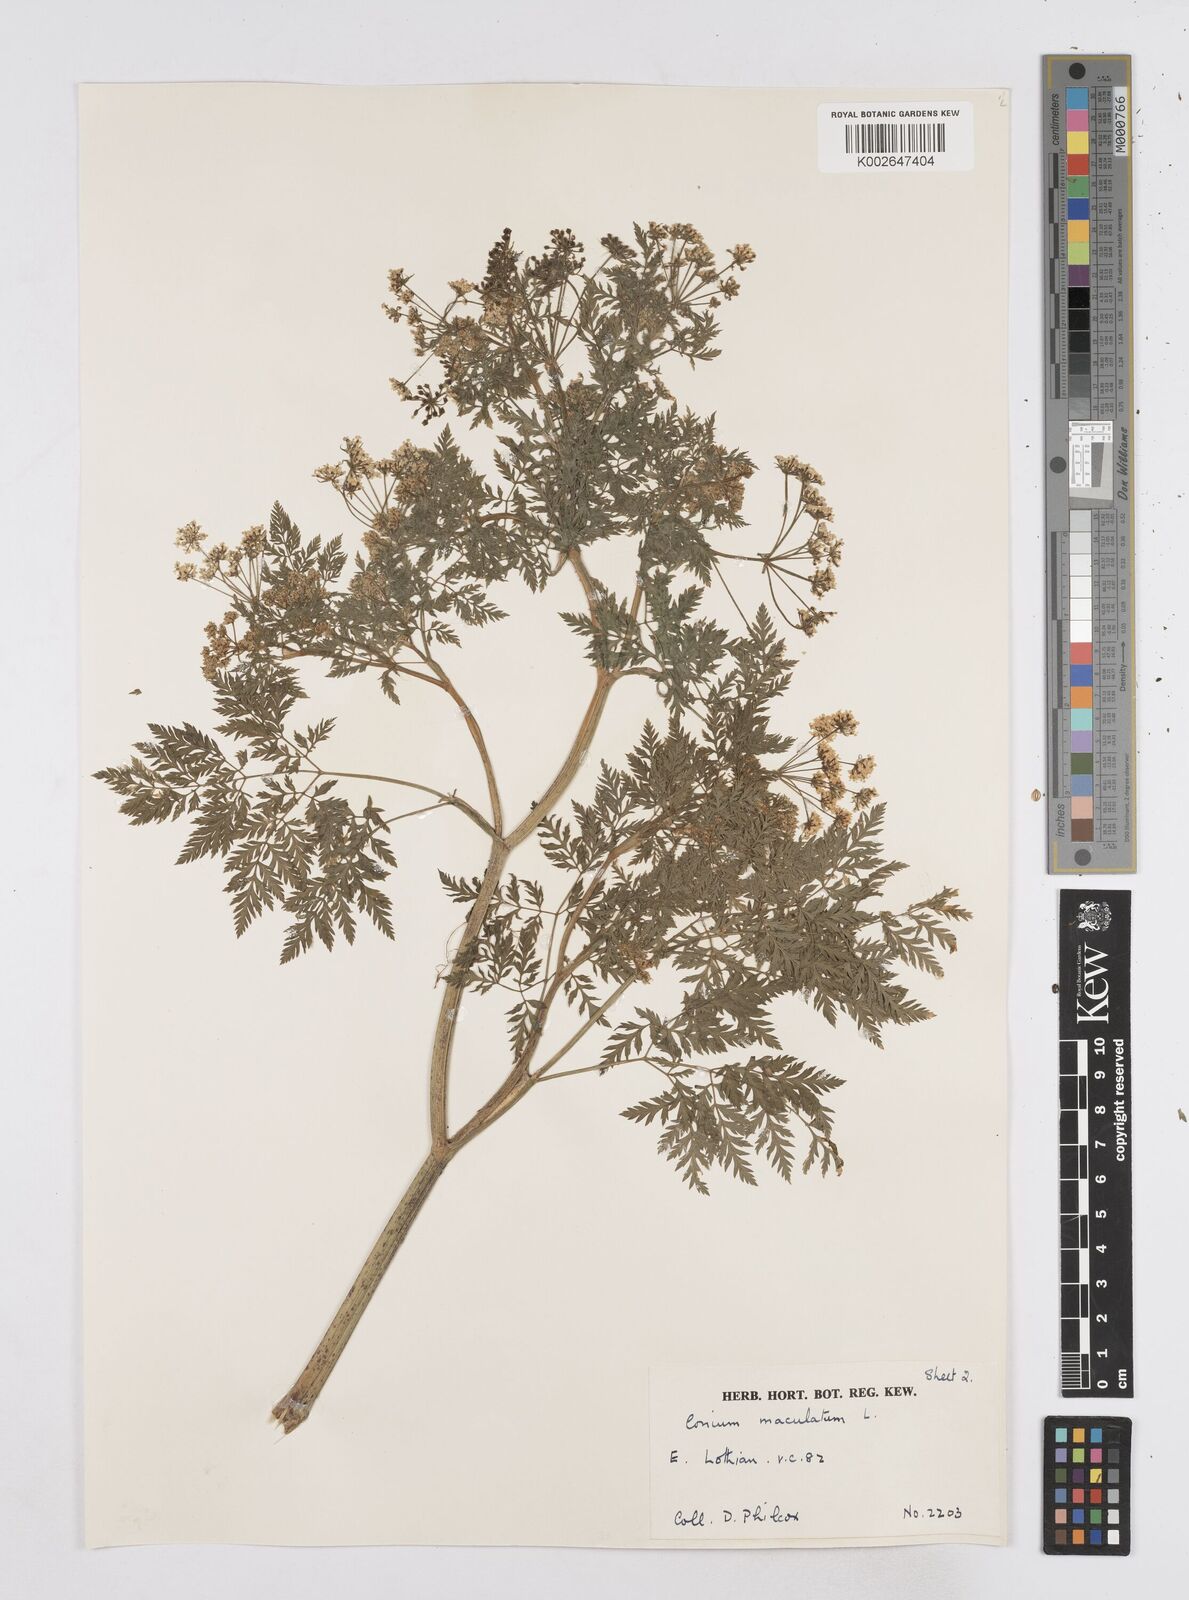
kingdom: Plantae
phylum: Tracheophyta
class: Magnoliopsida
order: Apiales
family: Apiaceae
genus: Conium
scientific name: Conium maculatum
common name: Hemlock
